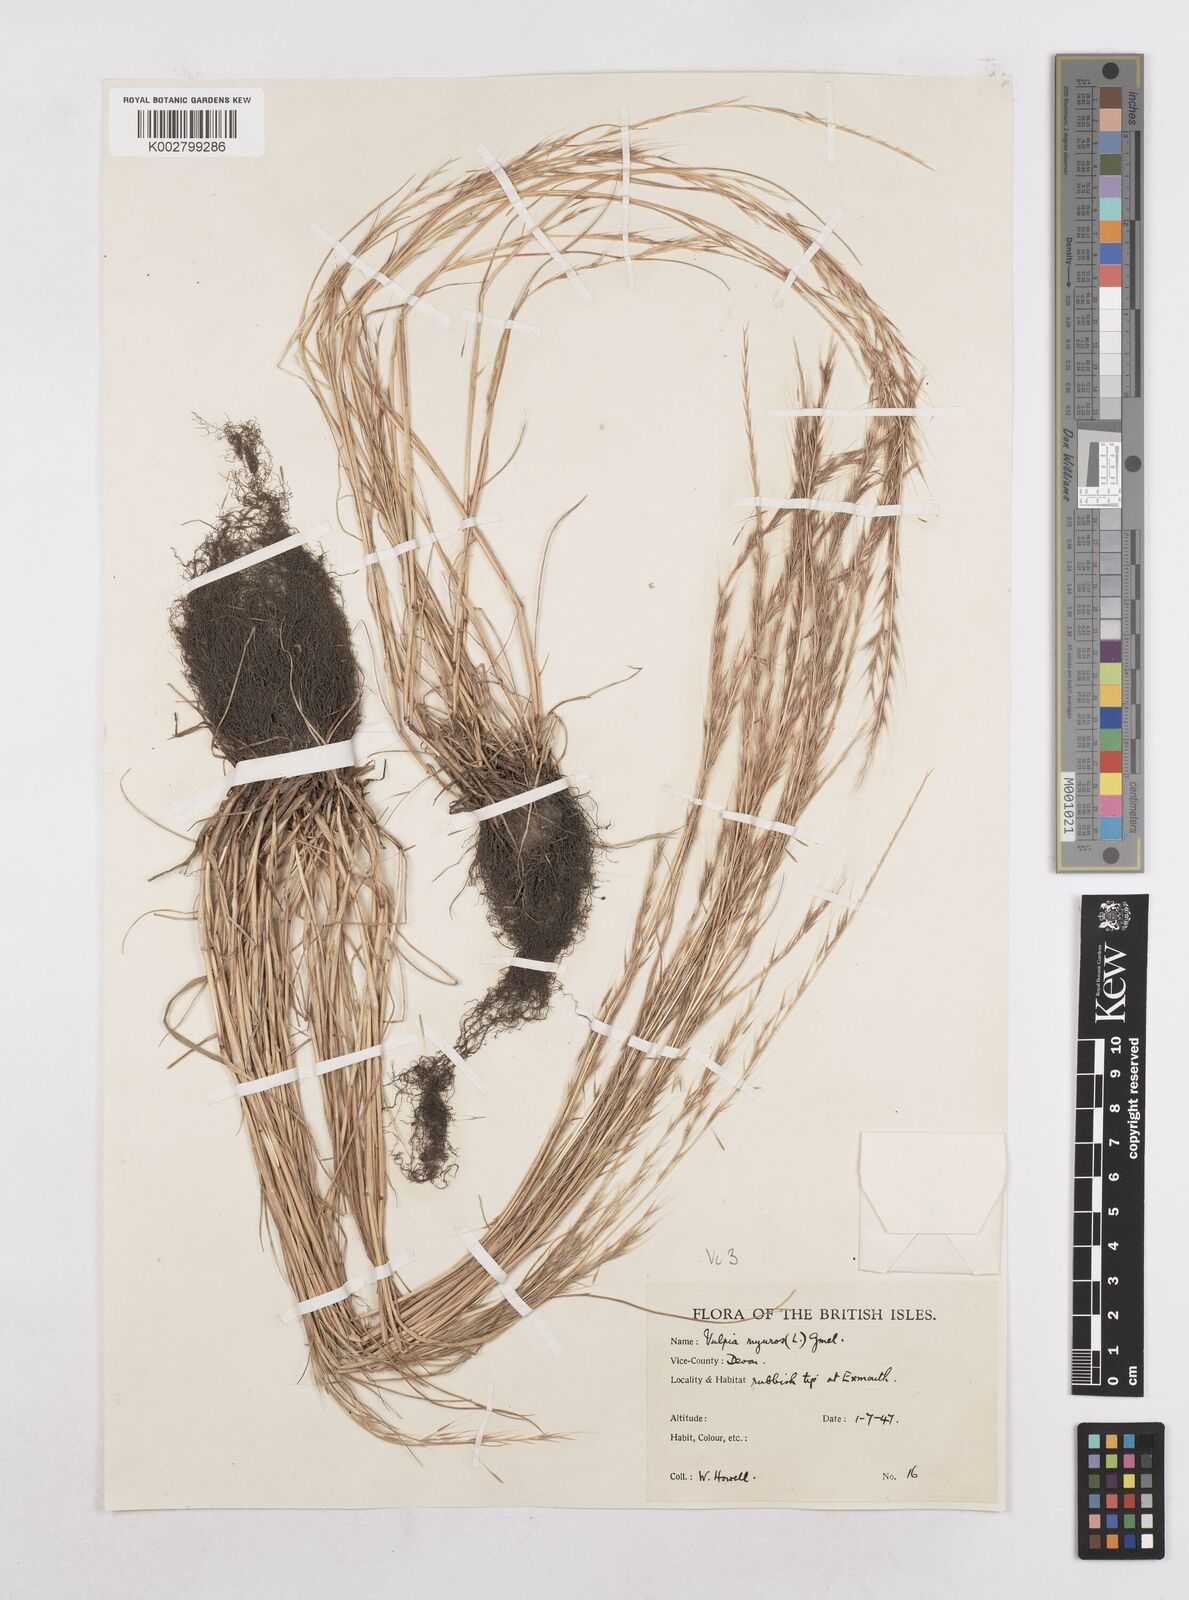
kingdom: Plantae
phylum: Tracheophyta
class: Liliopsida
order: Poales
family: Poaceae
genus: Festuca
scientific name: Festuca myuros
